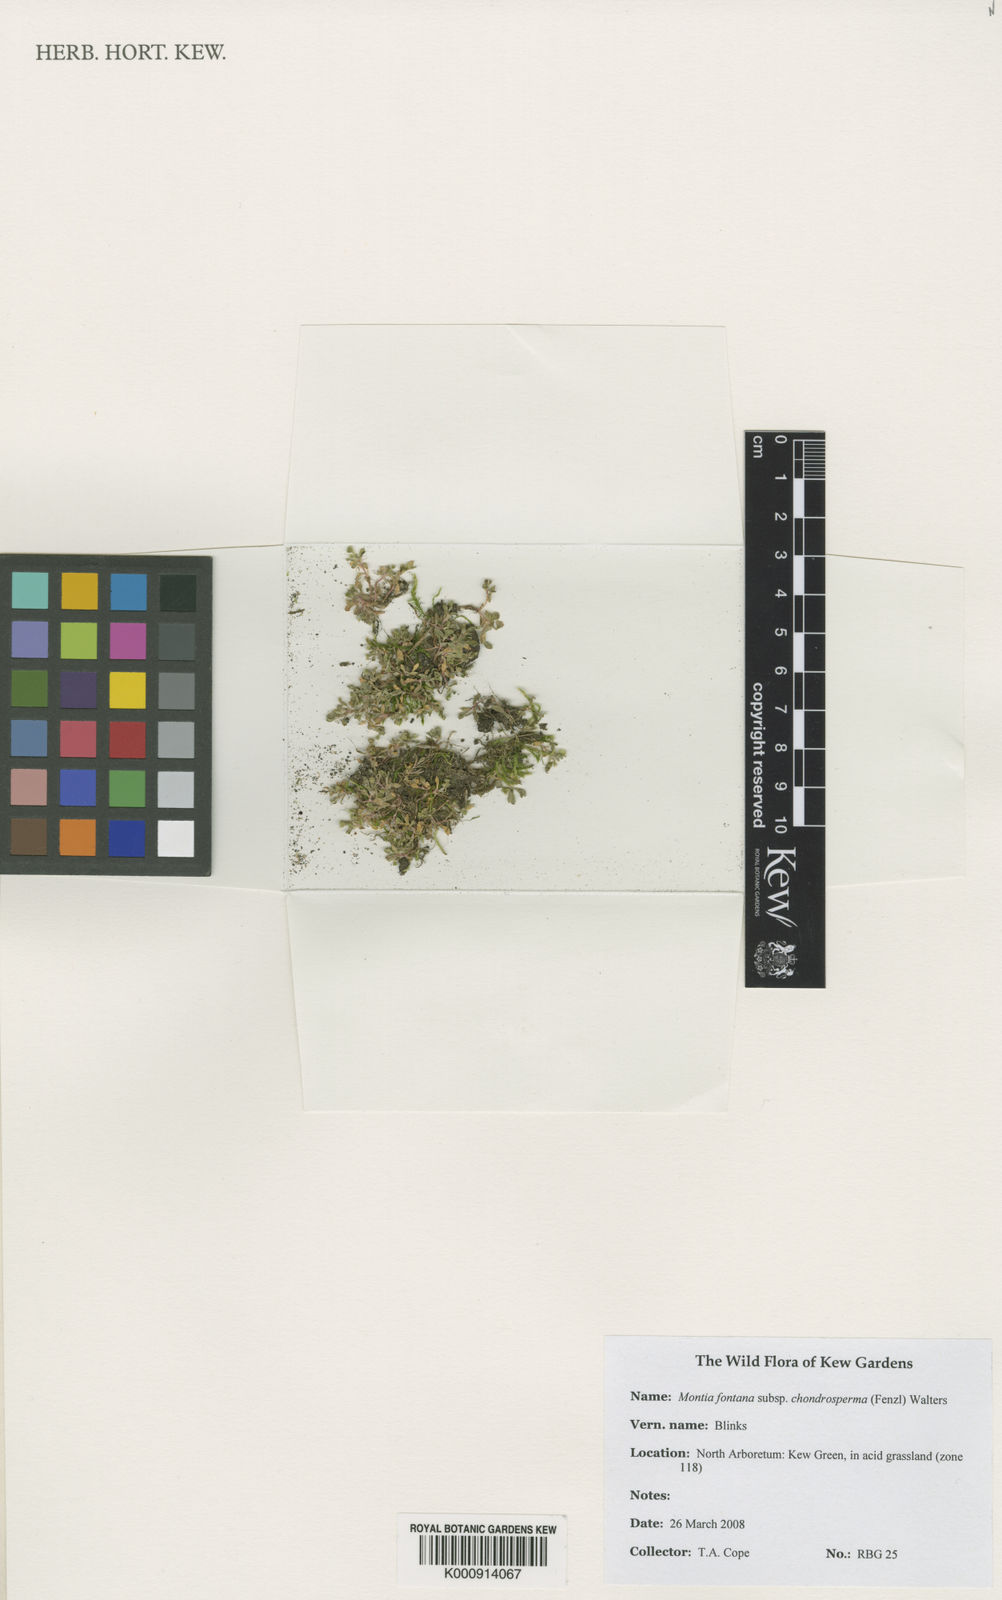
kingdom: Plantae
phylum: Tracheophyta
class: Magnoliopsida
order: Caryophyllales
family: Montiaceae
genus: Montia
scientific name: Montia arvensis
